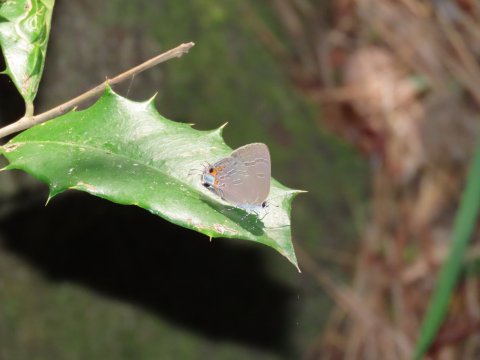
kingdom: Animalia
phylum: Arthropoda
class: Insecta
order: Lepidoptera
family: Lycaenidae
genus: Strymon
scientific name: Strymon kingi
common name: King's Hairstreak
